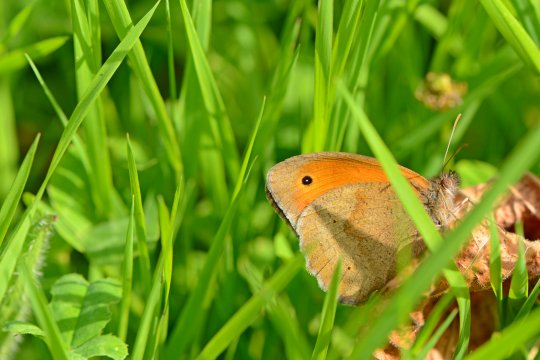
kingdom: Animalia
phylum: Arthropoda
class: Insecta
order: Lepidoptera
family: Nymphalidae
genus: Maniola
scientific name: Maniola jurtina
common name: Meadow Brown
